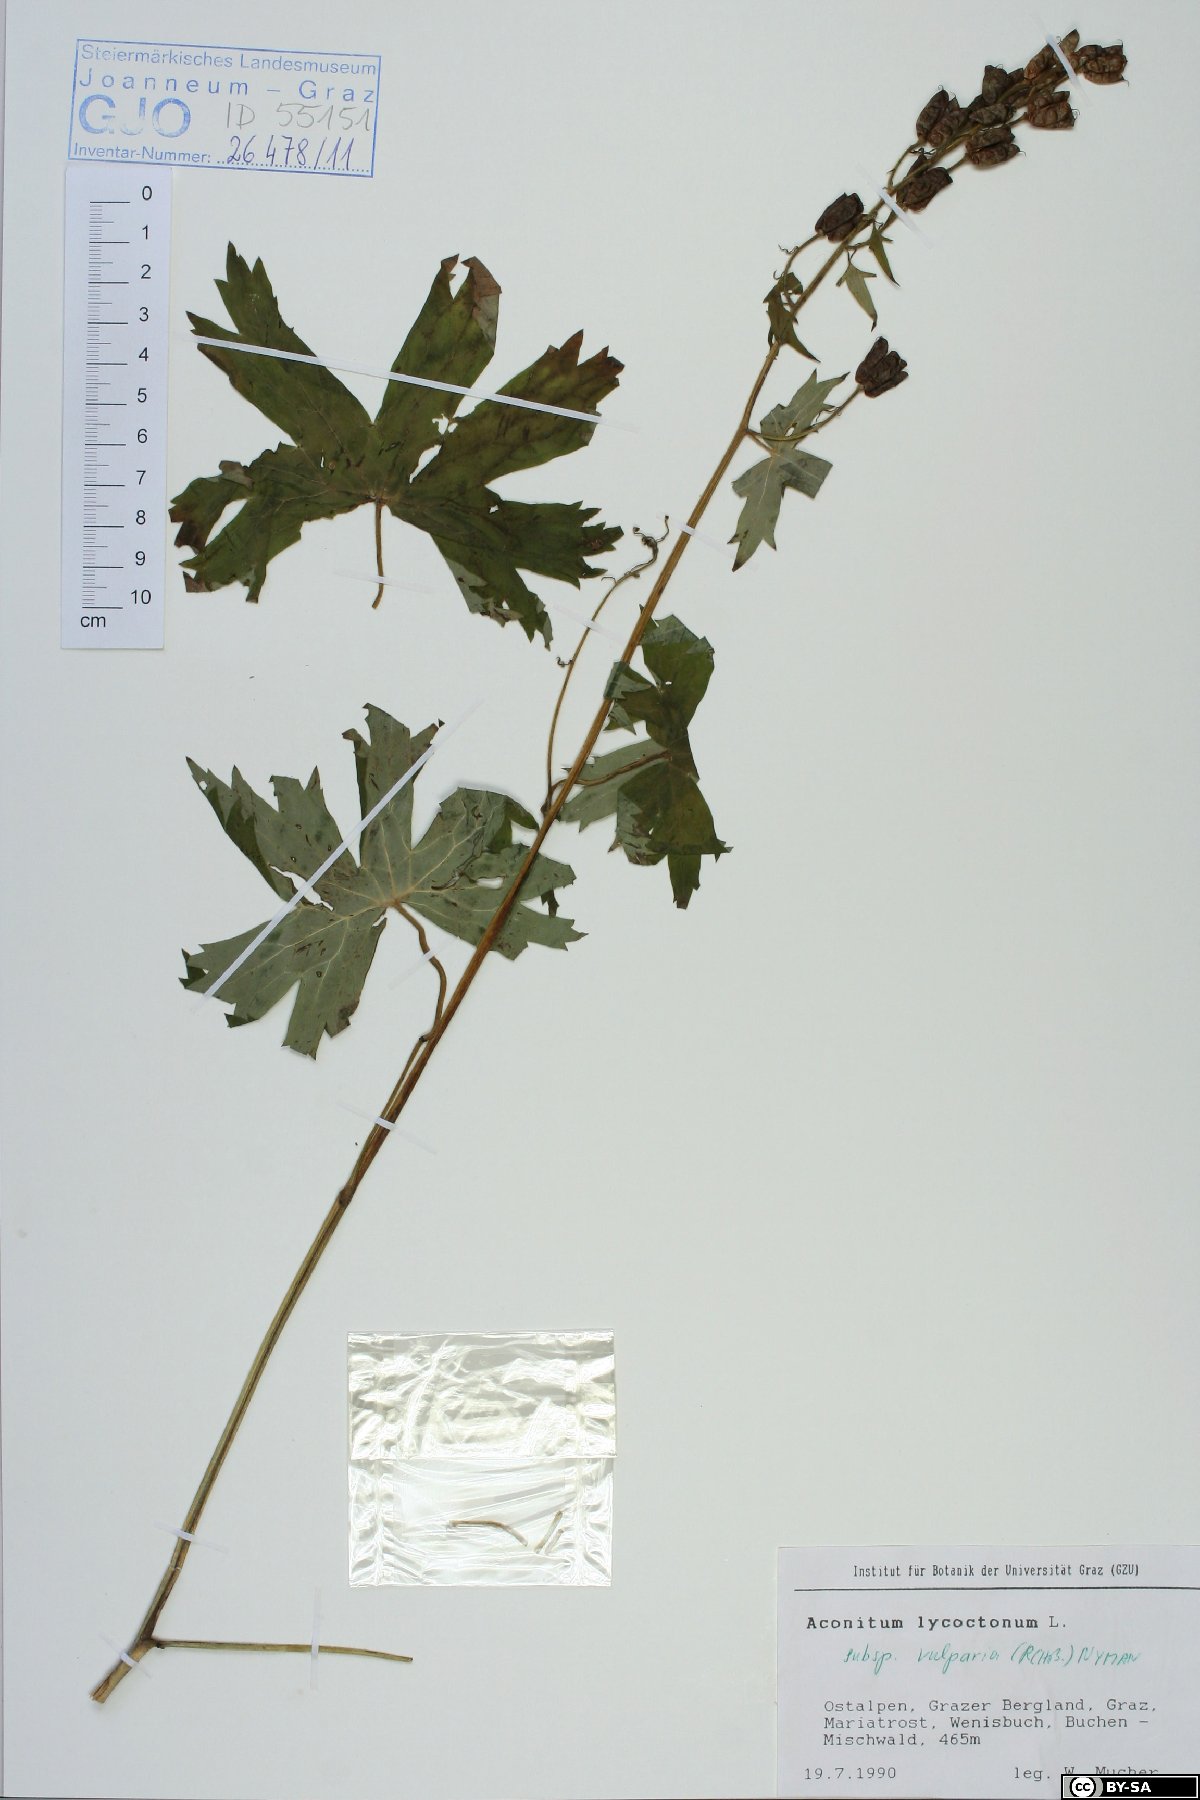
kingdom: Plantae
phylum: Tracheophyta
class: Magnoliopsida
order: Ranunculales
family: Ranunculaceae
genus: Aconitum
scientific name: Aconitum lycoctonum
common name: Wolf's-bane
